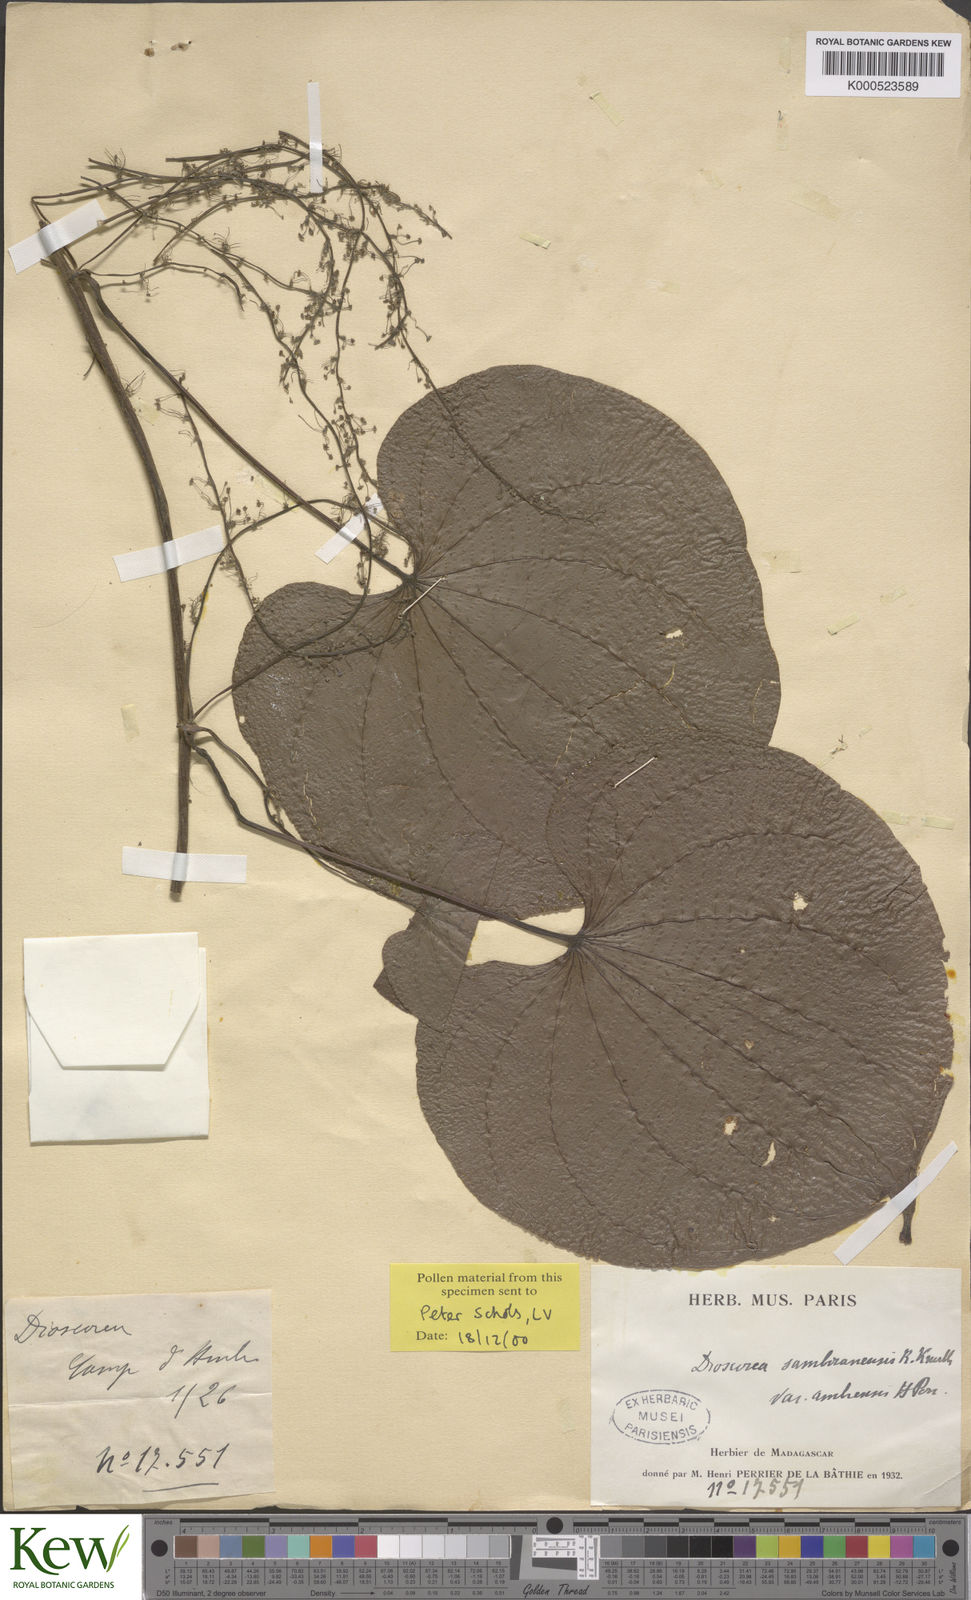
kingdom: Plantae
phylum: Tracheophyta
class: Liliopsida
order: Dioscoreales
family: Dioscoreaceae
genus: Dioscorea
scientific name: Dioscorea sambiranensis
